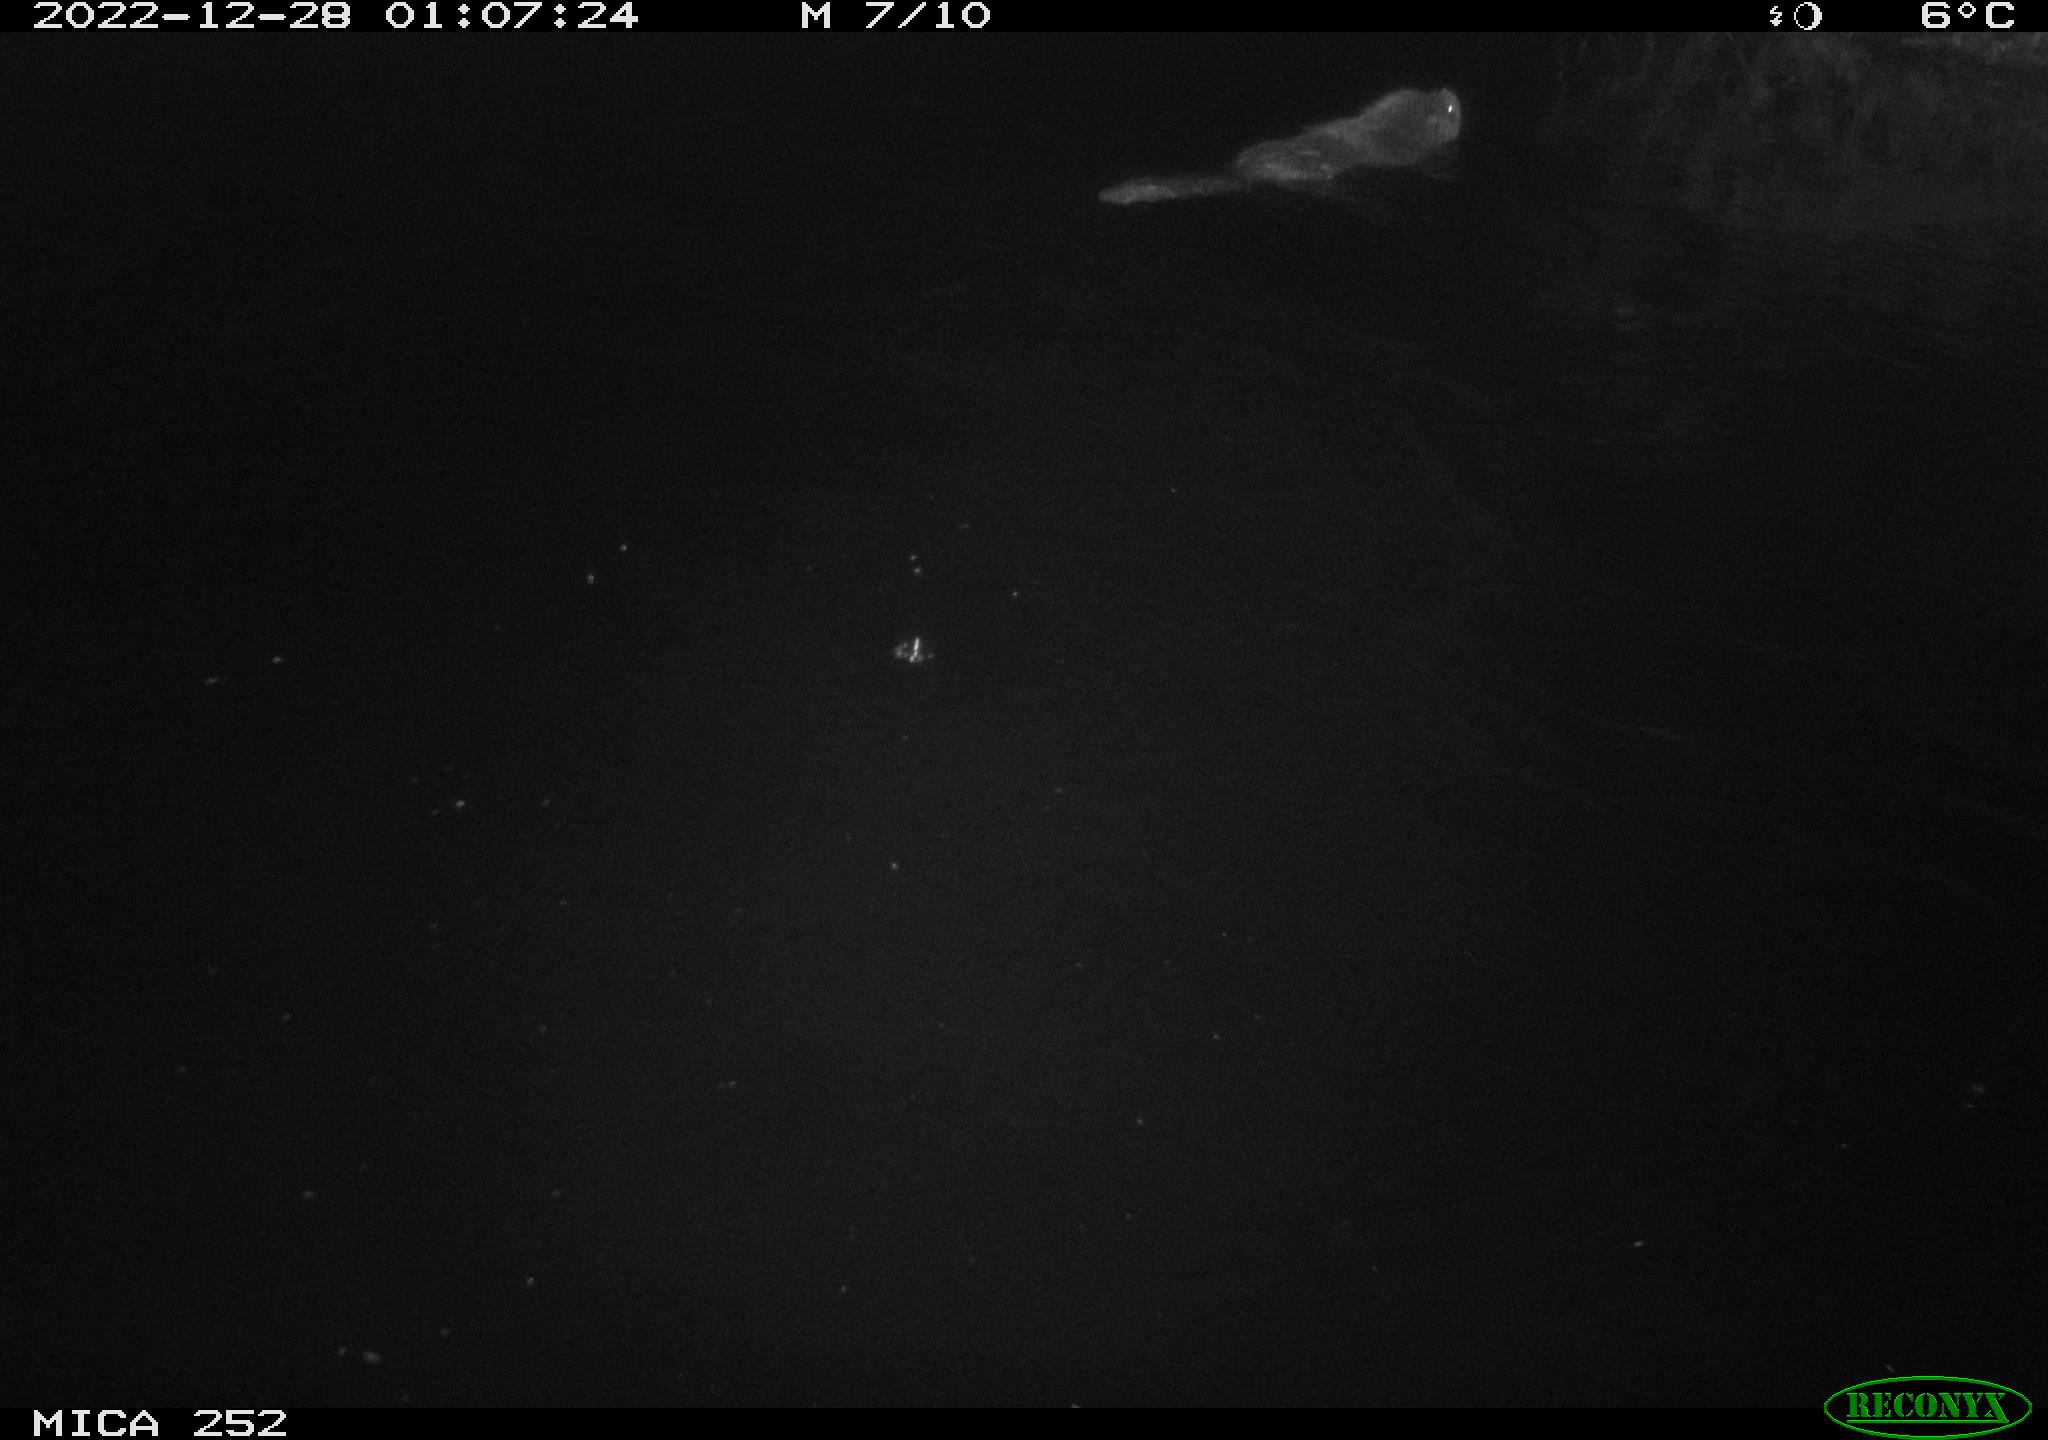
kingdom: Animalia
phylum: Chordata
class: Mammalia
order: Rodentia
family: Castoridae
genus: Castor
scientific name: Castor fiber
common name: Eurasian beaver
